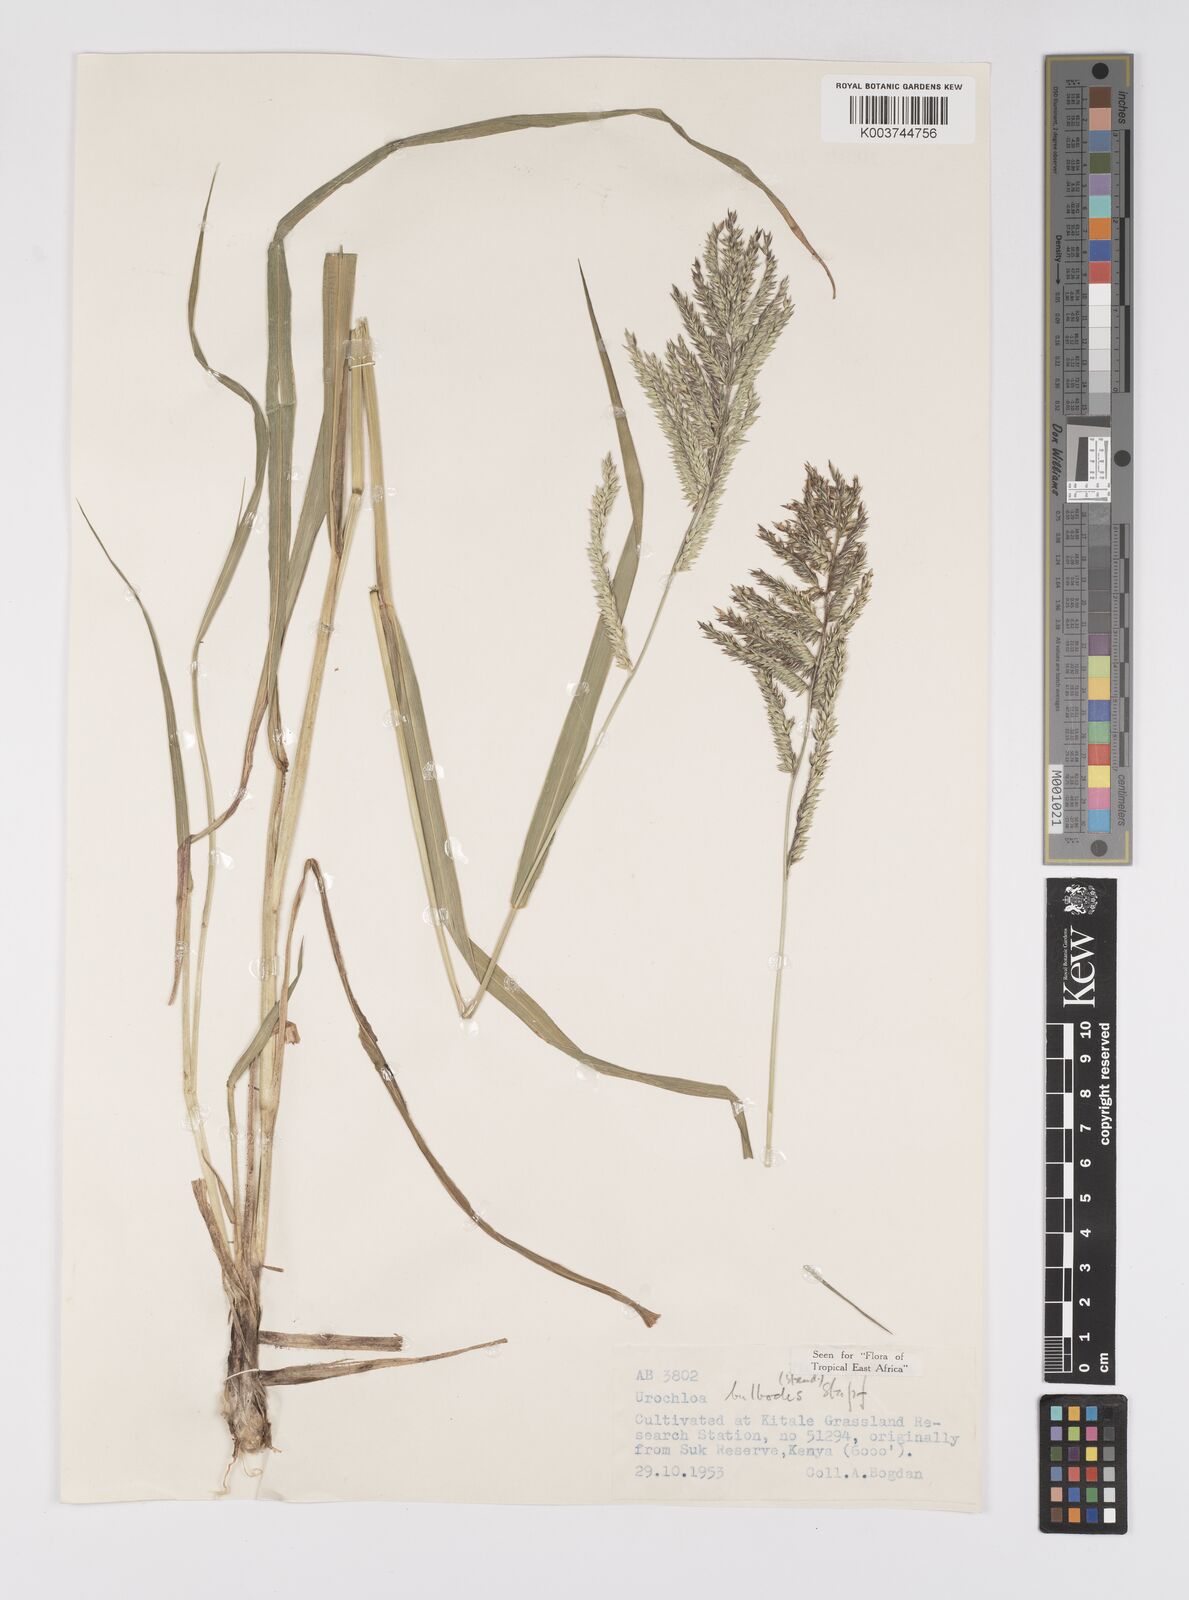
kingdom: Plantae
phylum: Tracheophyta
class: Liliopsida
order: Poales
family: Poaceae
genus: Urochloa
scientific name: Urochloa oligotricha
